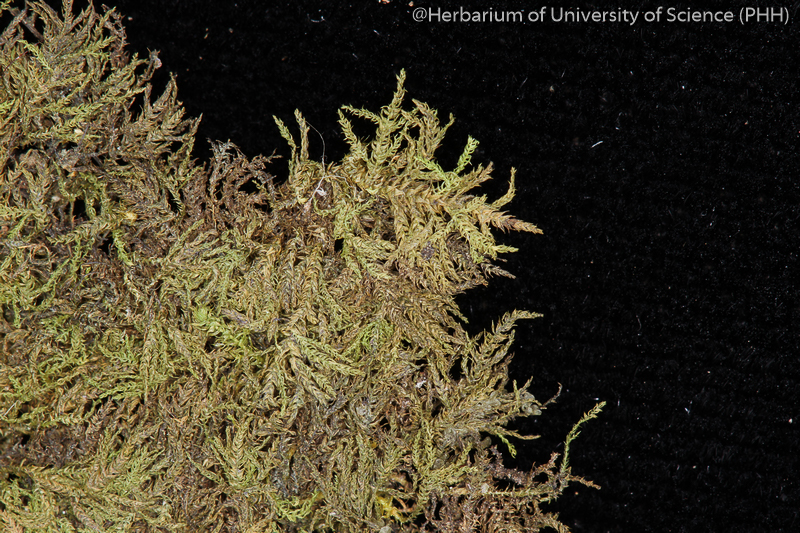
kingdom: Plantae
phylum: Bryophyta
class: Bryopsida
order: Hypnales
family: Leskeaceae
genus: Haplocladium
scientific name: Haplocladium microphyllum
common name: Tiny-leaved haplocladium
